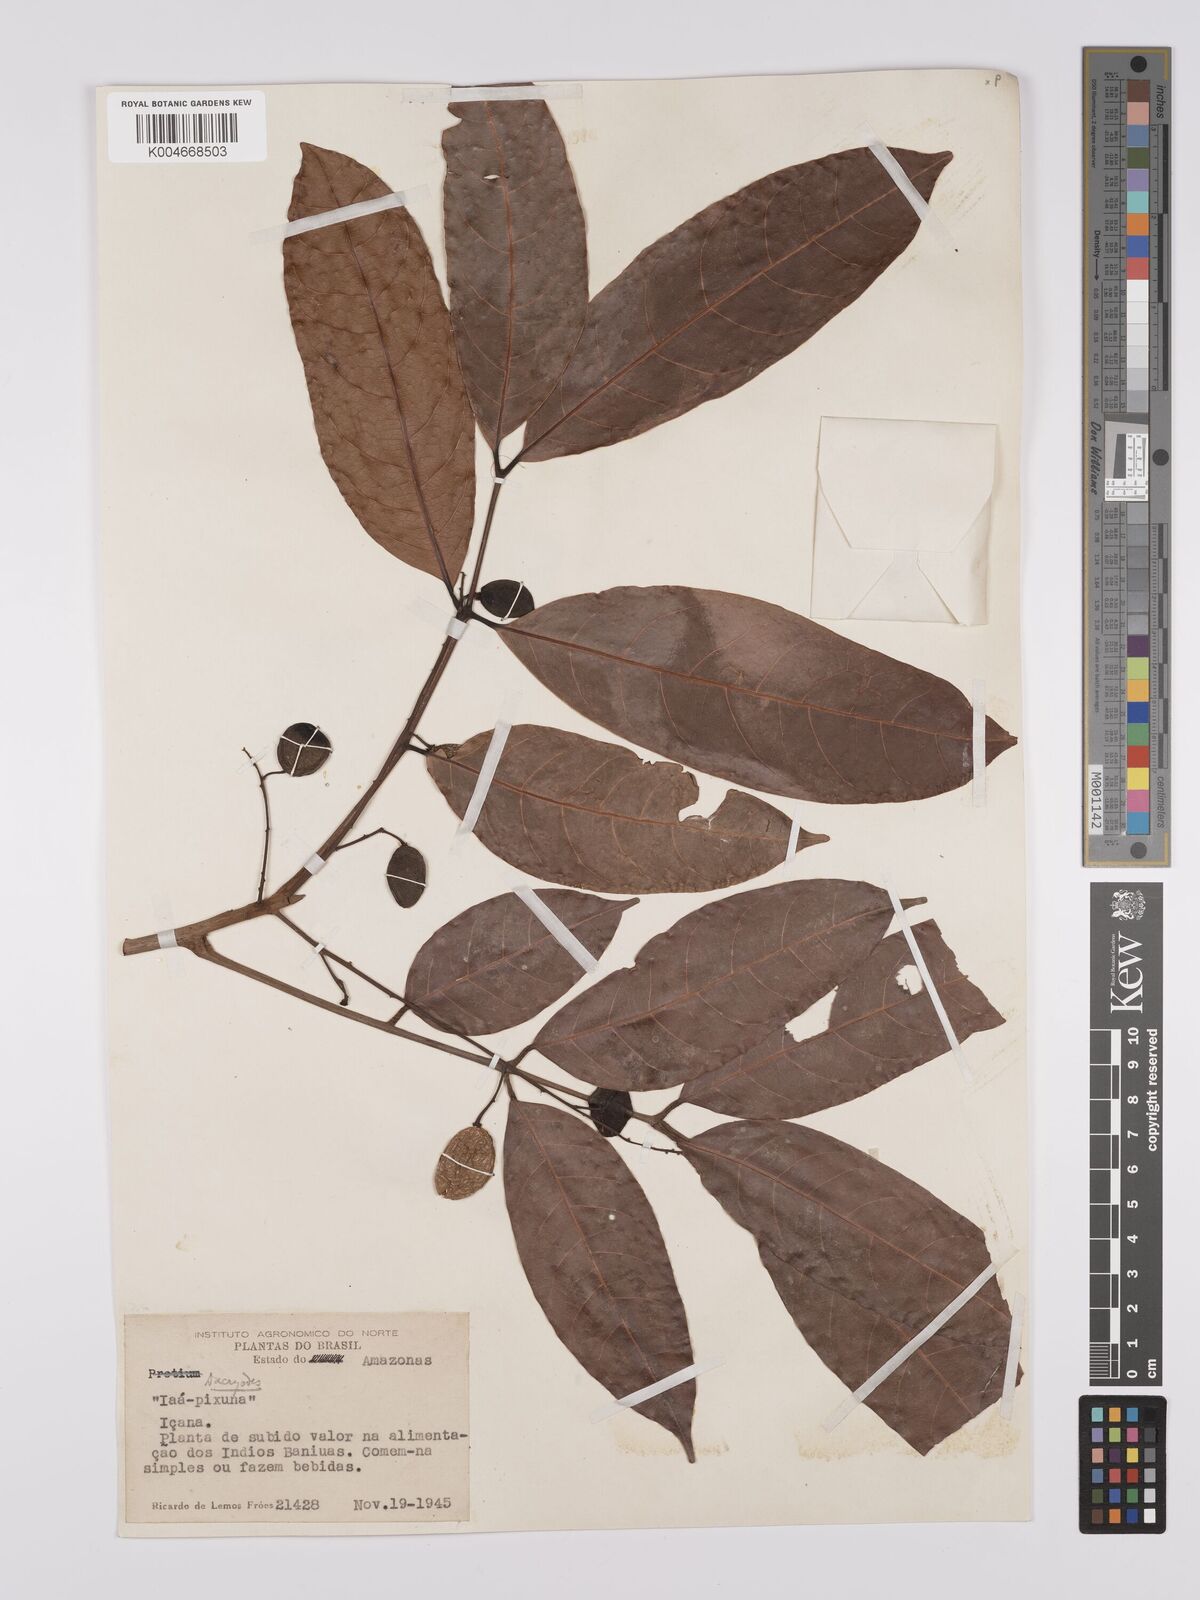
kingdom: Plantae
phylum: Tracheophyta
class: Magnoliopsida
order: Sapindales
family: Burseraceae
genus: Dacryodes
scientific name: Dacryodes
